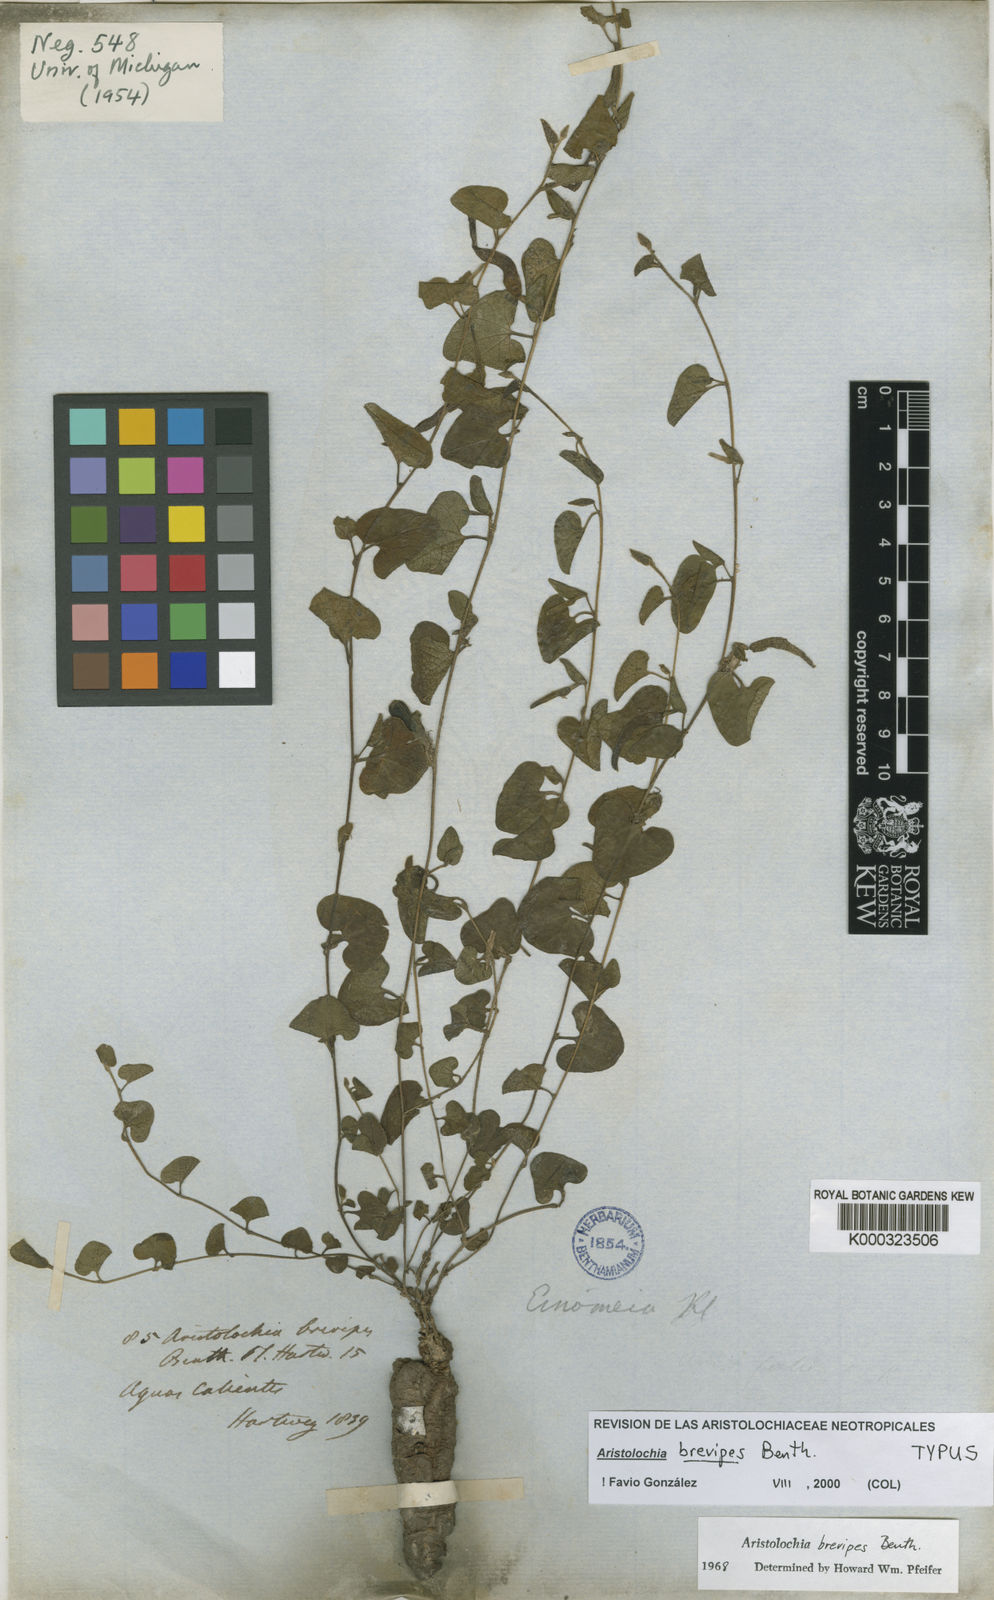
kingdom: Plantae
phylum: Tracheophyta
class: Magnoliopsida
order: Piperales
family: Aristolochiaceae
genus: Aristolochia
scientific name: Aristolochia brevipes
